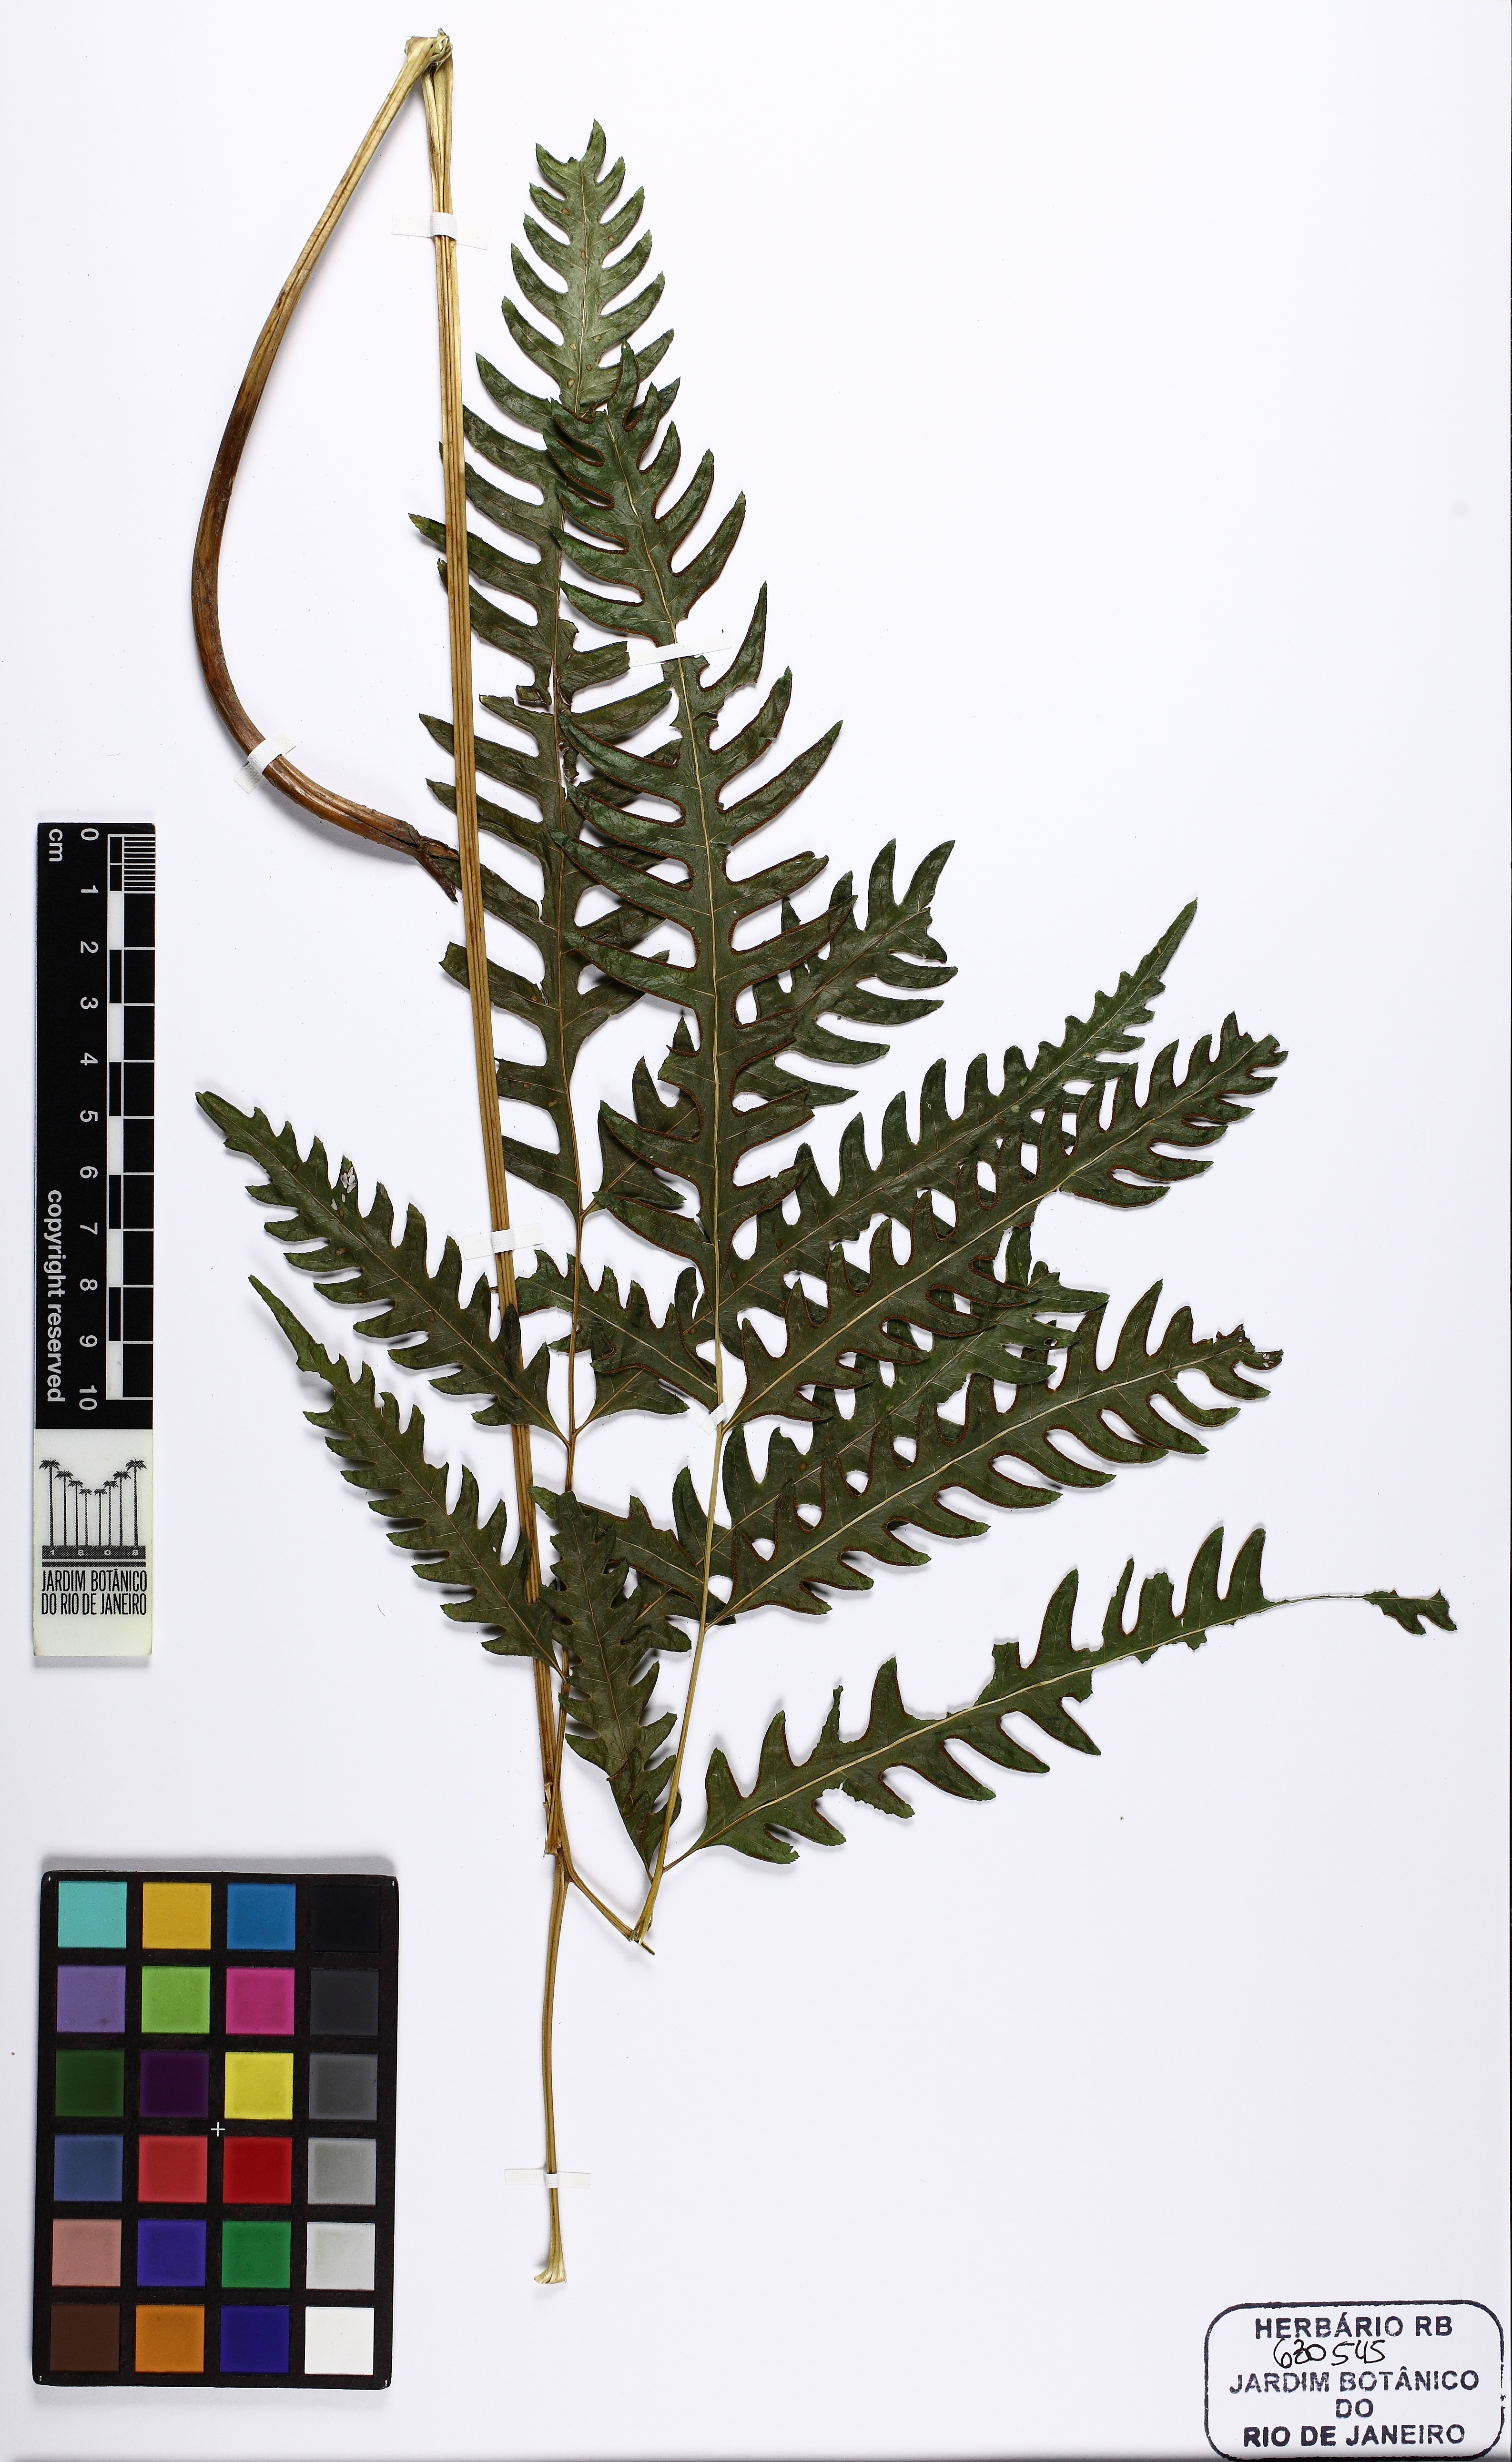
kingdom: Plantae
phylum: Tracheophyta
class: Polypodiopsida
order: Polypodiales
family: Pteridaceae
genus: Pteris
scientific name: Pteris biaurita
